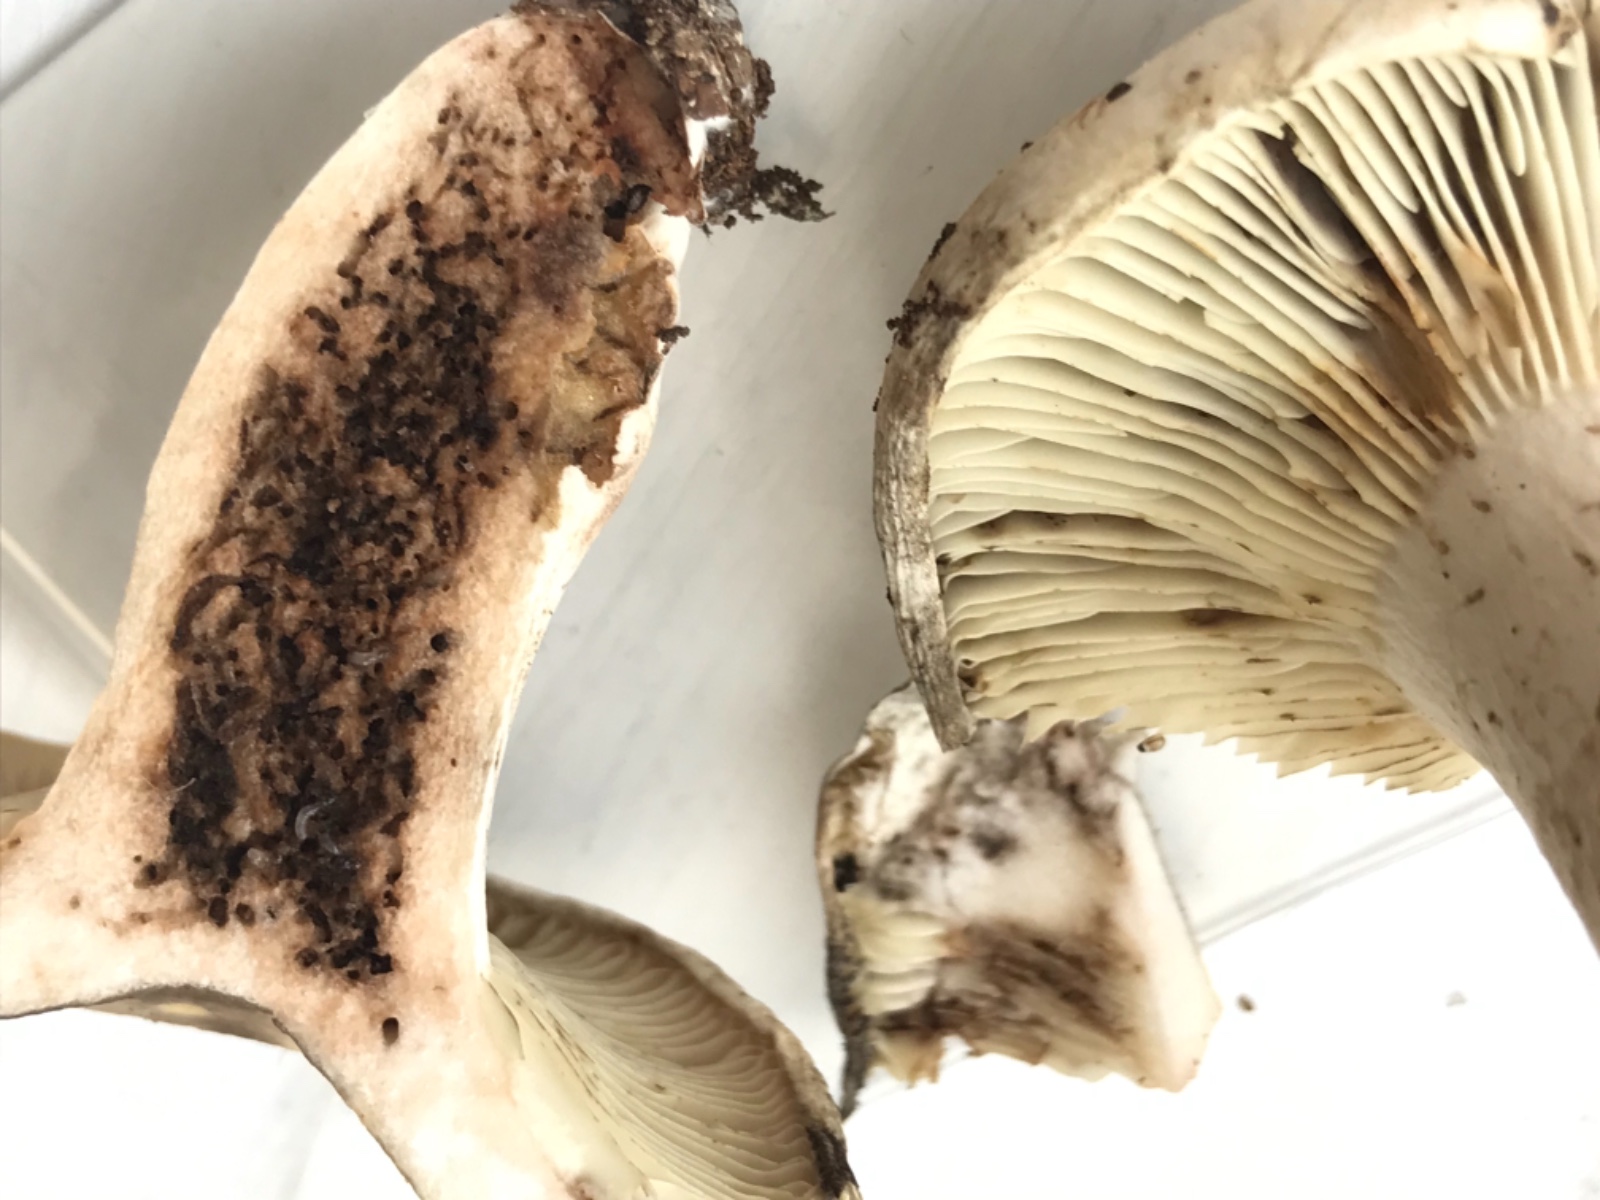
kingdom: Fungi
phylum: Basidiomycota
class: Agaricomycetes
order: Russulales
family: Russulaceae
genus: Russula
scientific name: Russula
